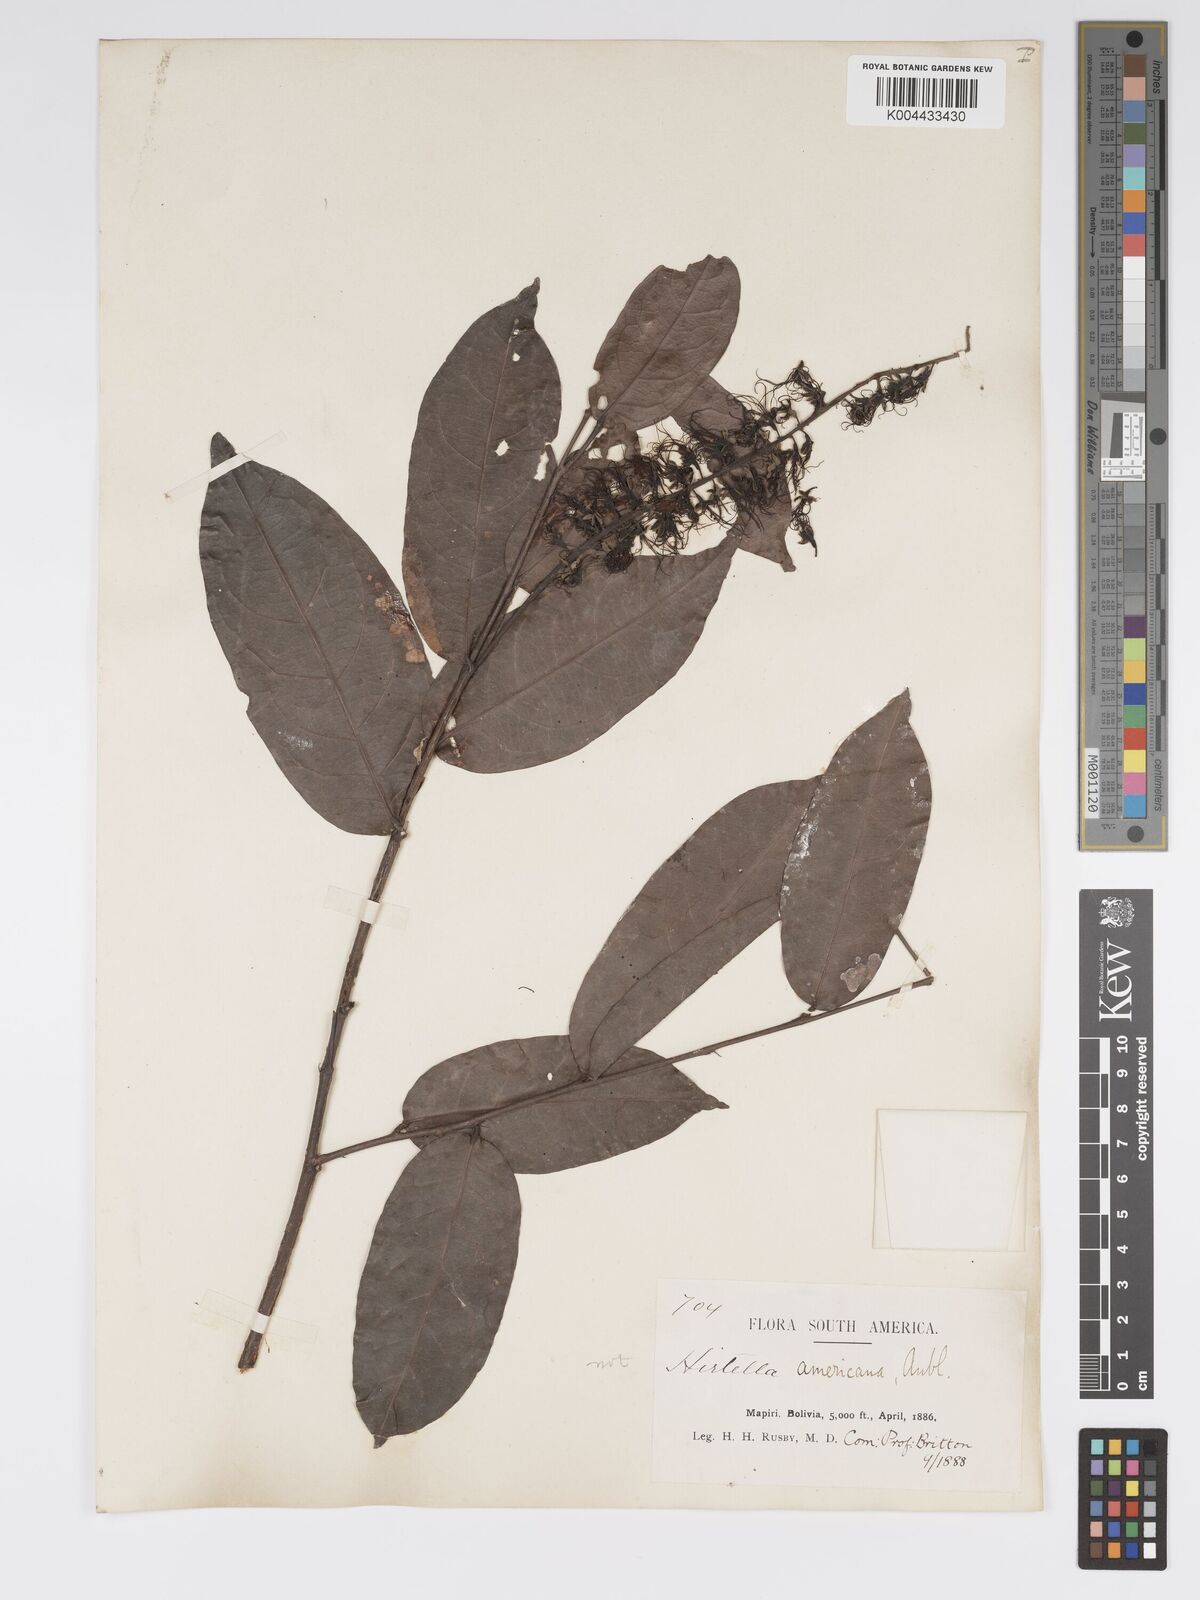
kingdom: Plantae
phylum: Tracheophyta
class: Magnoliopsida
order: Malpighiales
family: Chrysobalanaceae
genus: Hirtella
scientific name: Hirtella racemosa
